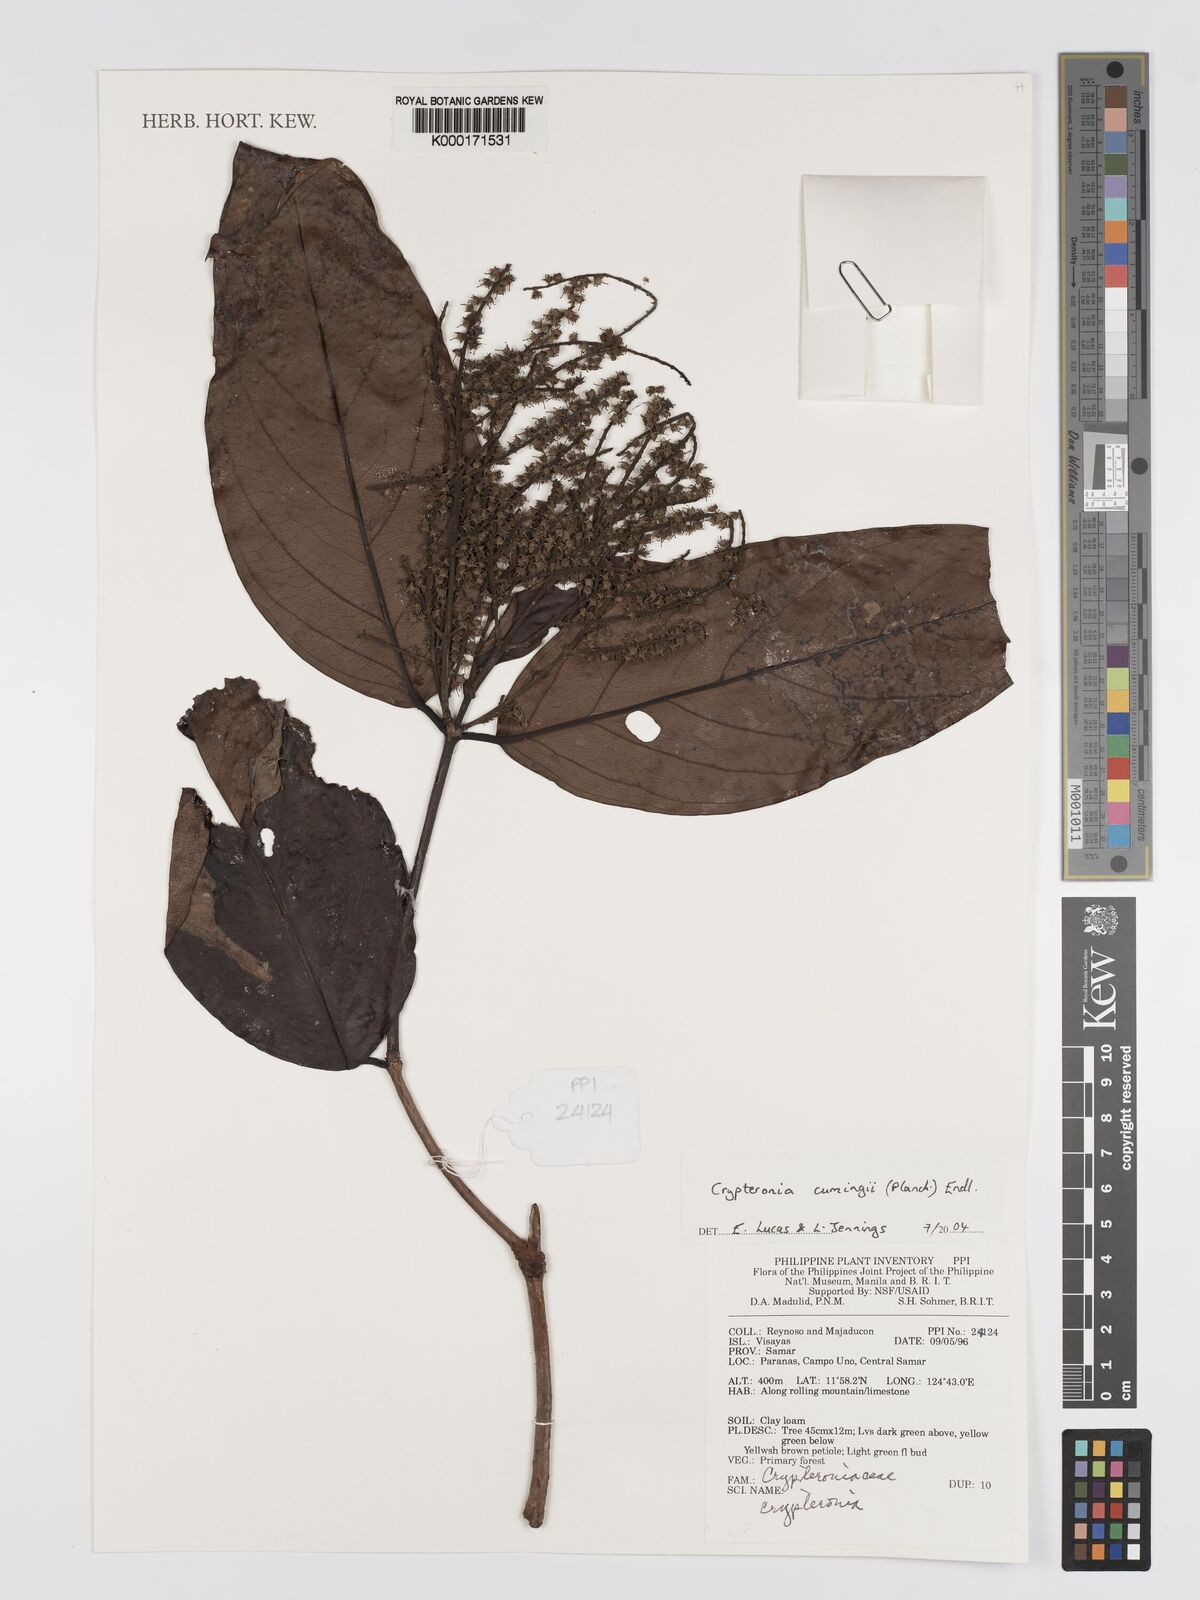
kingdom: Plantae
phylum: Tracheophyta
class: Magnoliopsida
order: Myrtales
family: Crypteroniaceae
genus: Crypteronia
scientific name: Crypteronia cumingii
